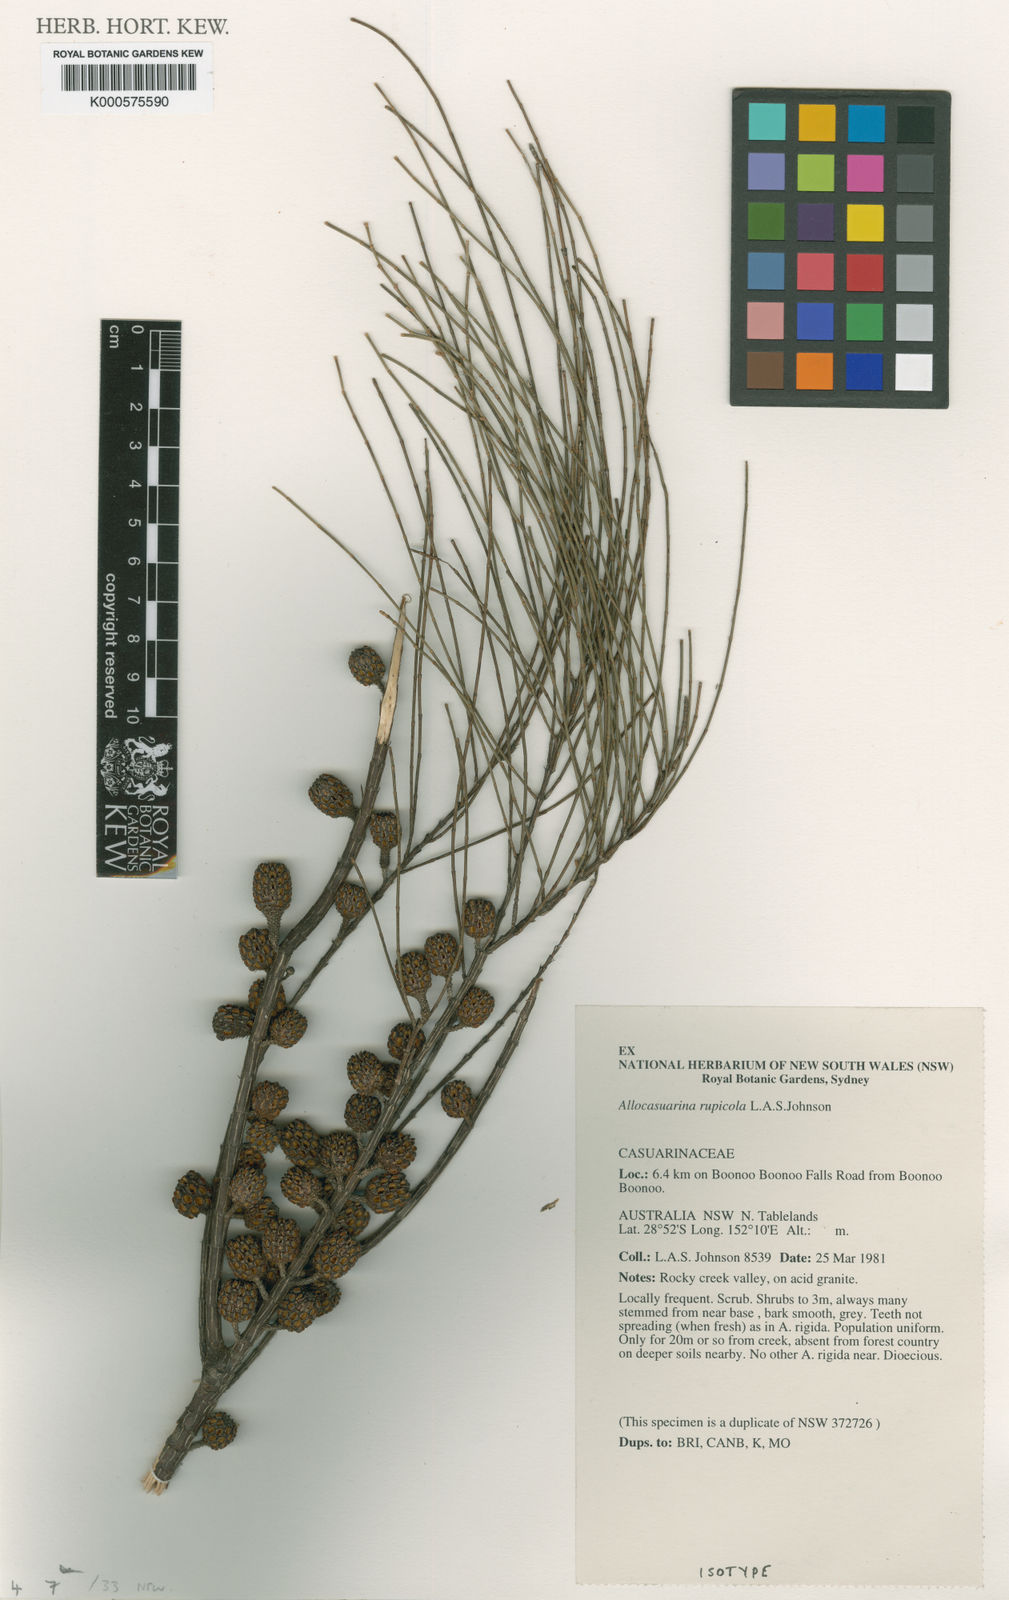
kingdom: Plantae
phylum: Tracheophyta
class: Magnoliopsida
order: Fagales
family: Casuarinaceae
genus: Allocasuarina
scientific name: Allocasuarina rupicola
